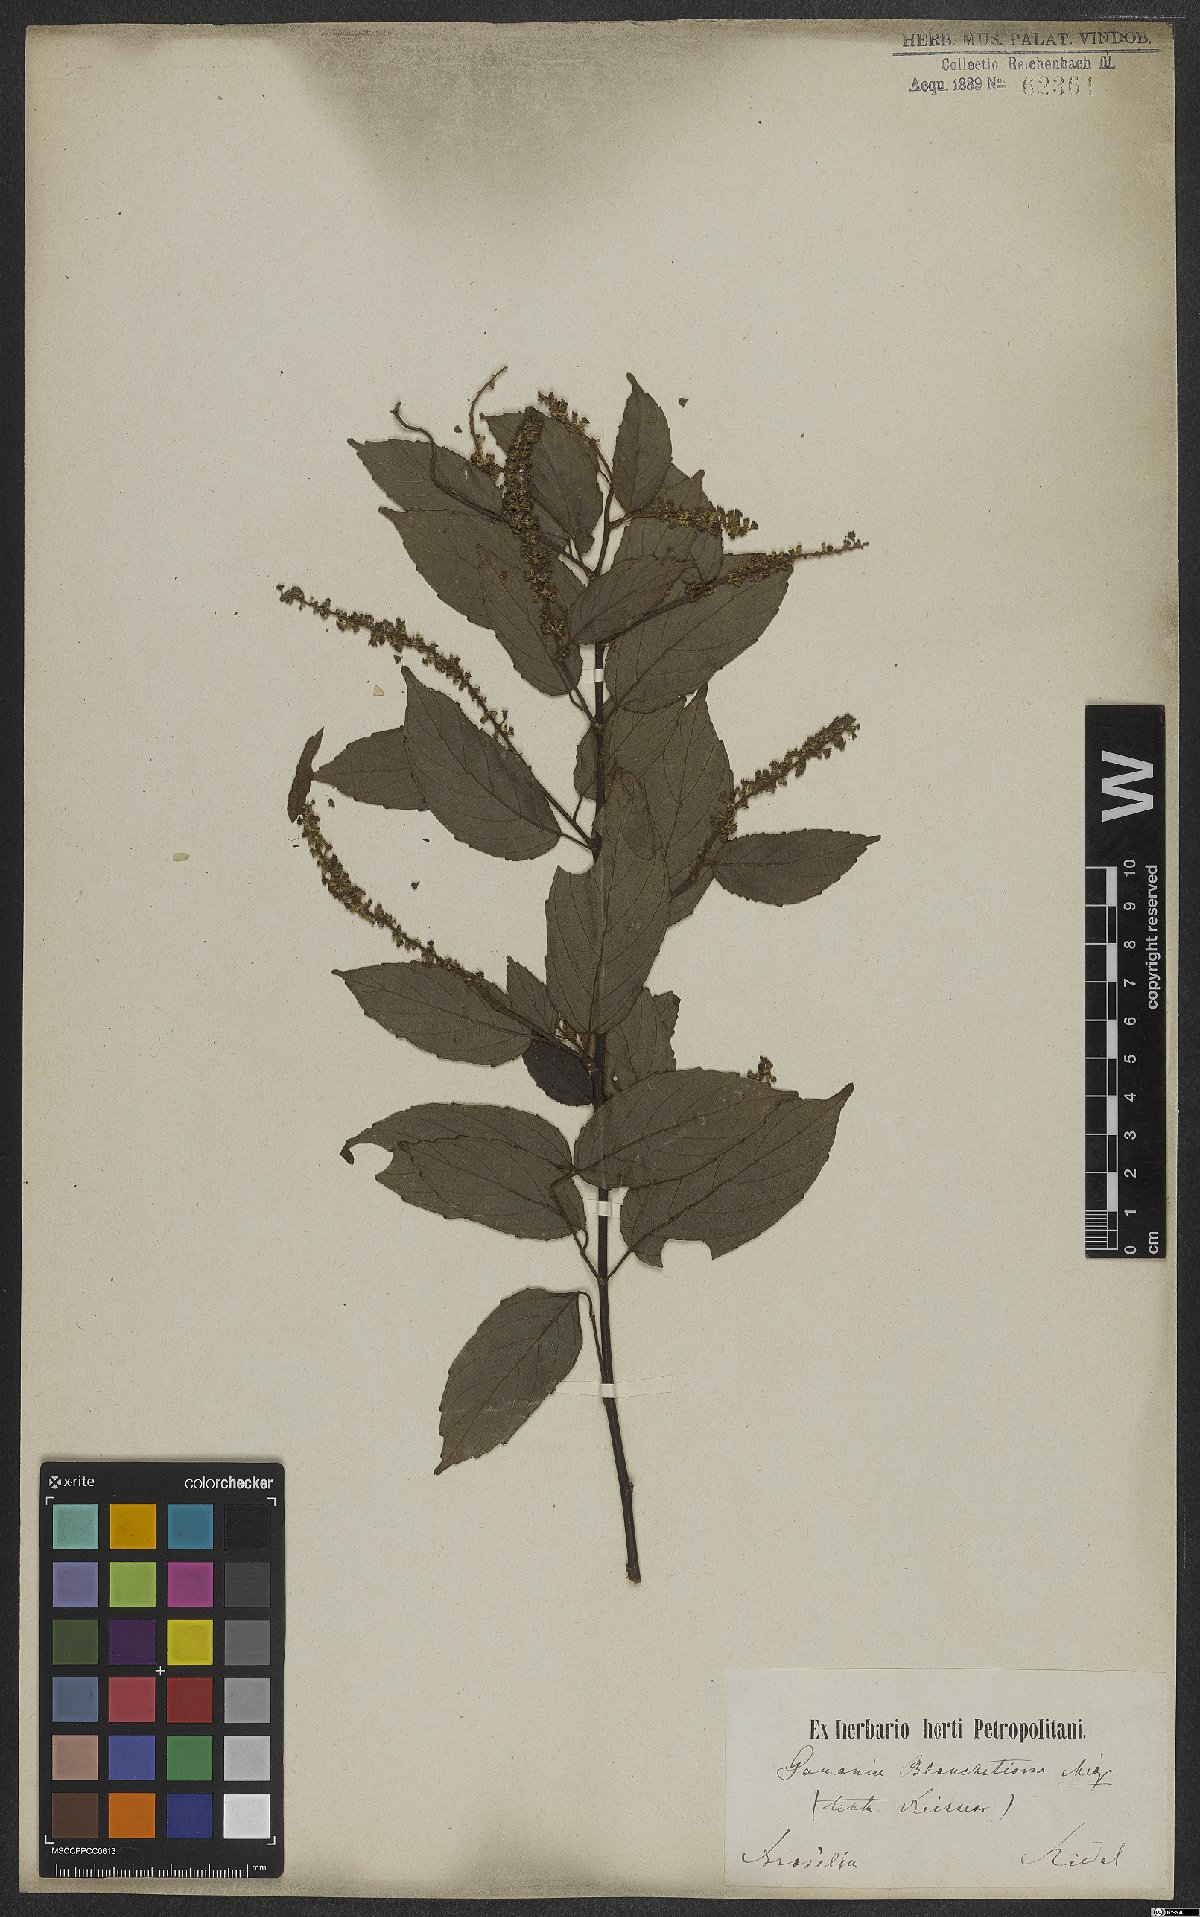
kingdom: Plantae
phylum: Tracheophyta
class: Magnoliopsida
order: Rosales
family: Rhamnaceae
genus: Gouania
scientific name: Gouania blanchetiana
